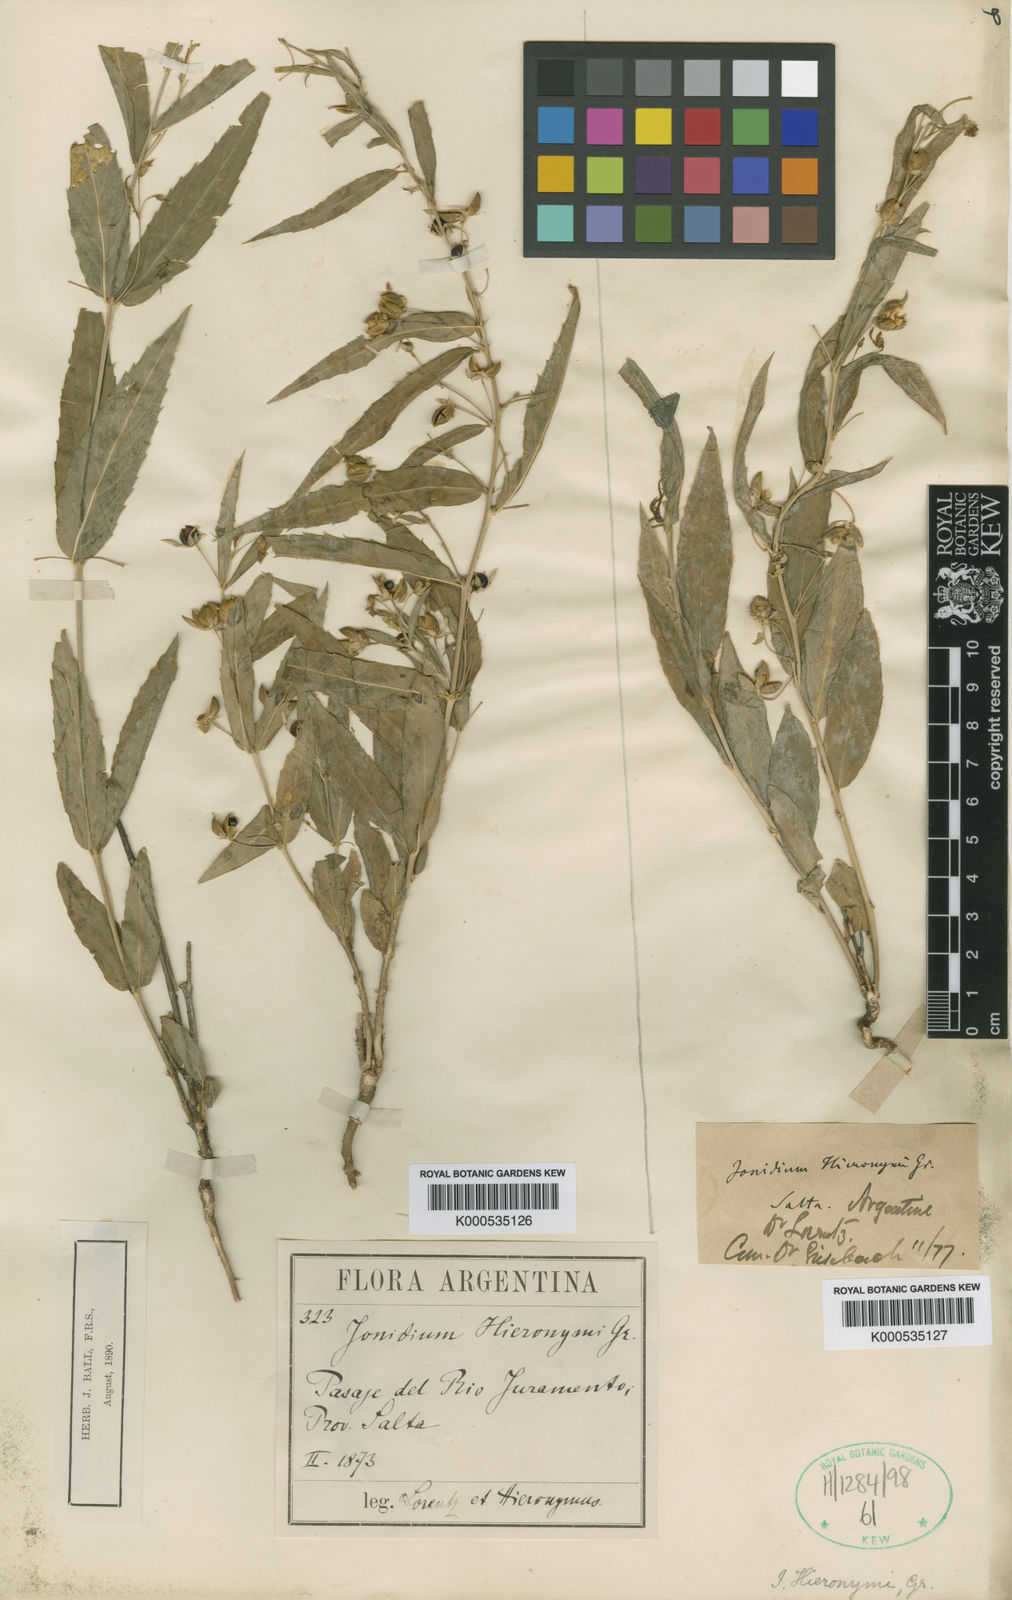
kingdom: Plantae
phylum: Tracheophyta
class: Magnoliopsida
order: Malpighiales
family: Violaceae
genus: Pombalia
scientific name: Pombalia oppositifolia
